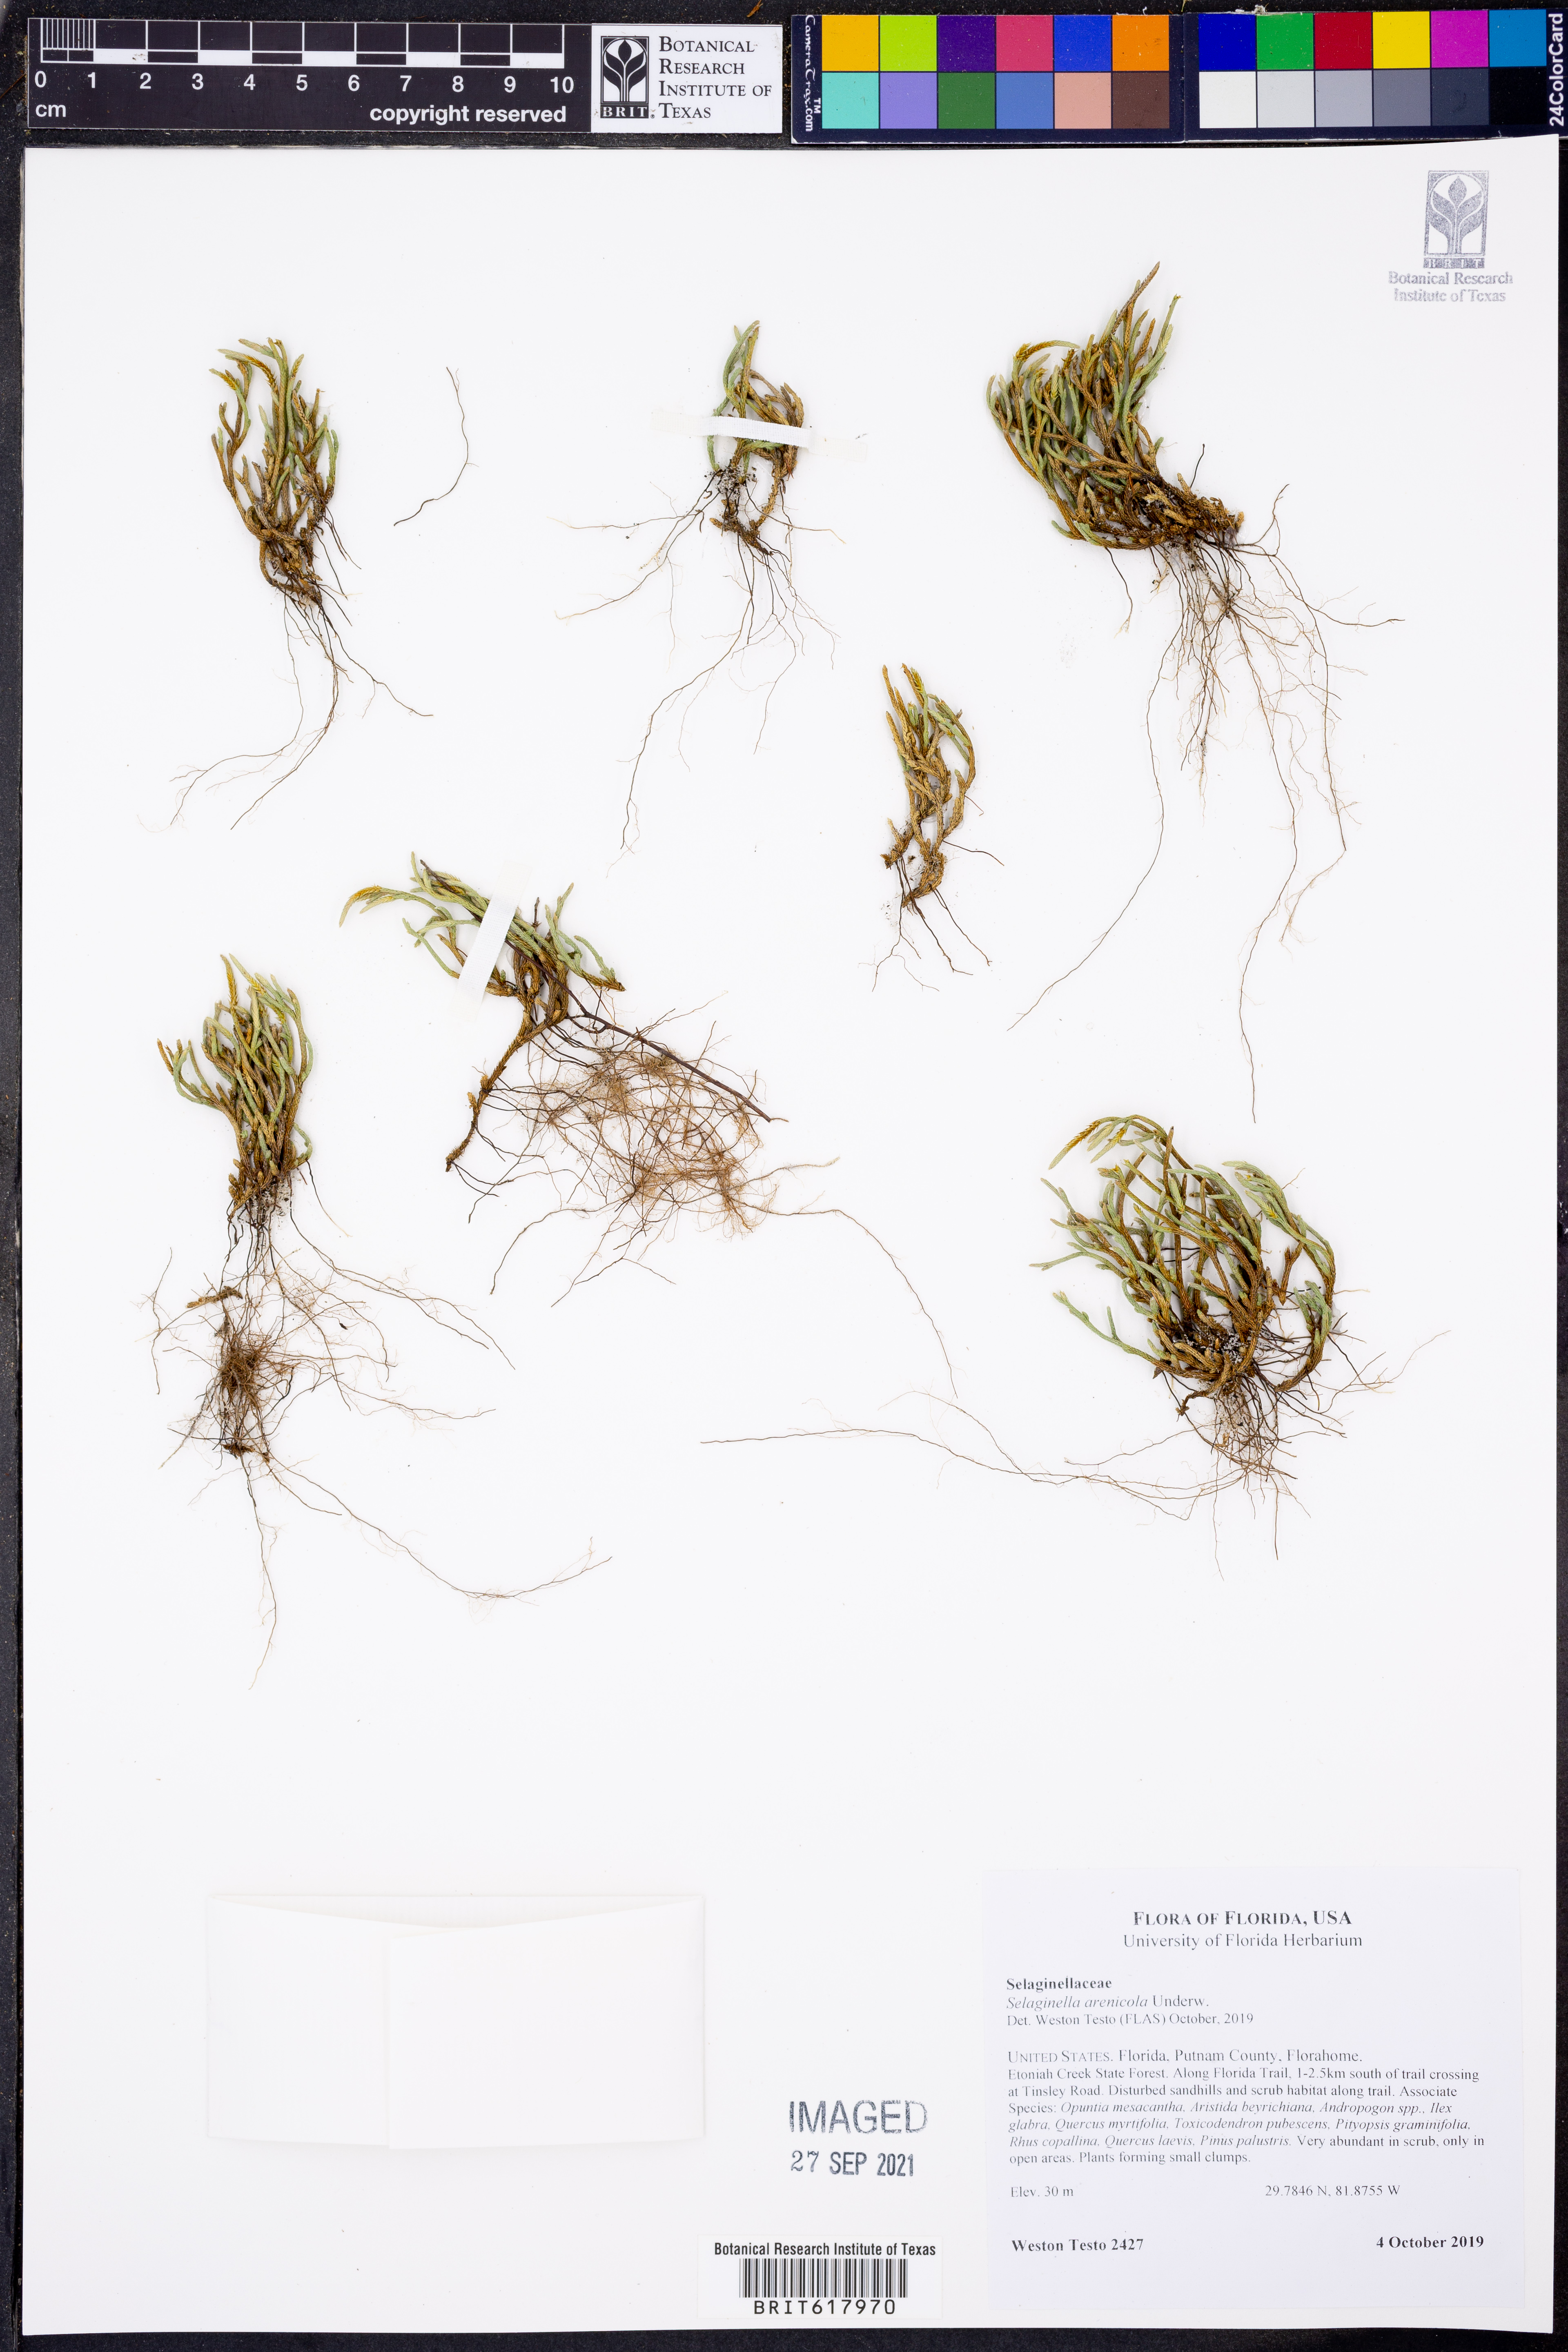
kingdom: Plantae
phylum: Tracheophyta
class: Lycopodiopsida
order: Selaginellales
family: Selaginellaceae
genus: Selaginella
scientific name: Selaginella arenicola
